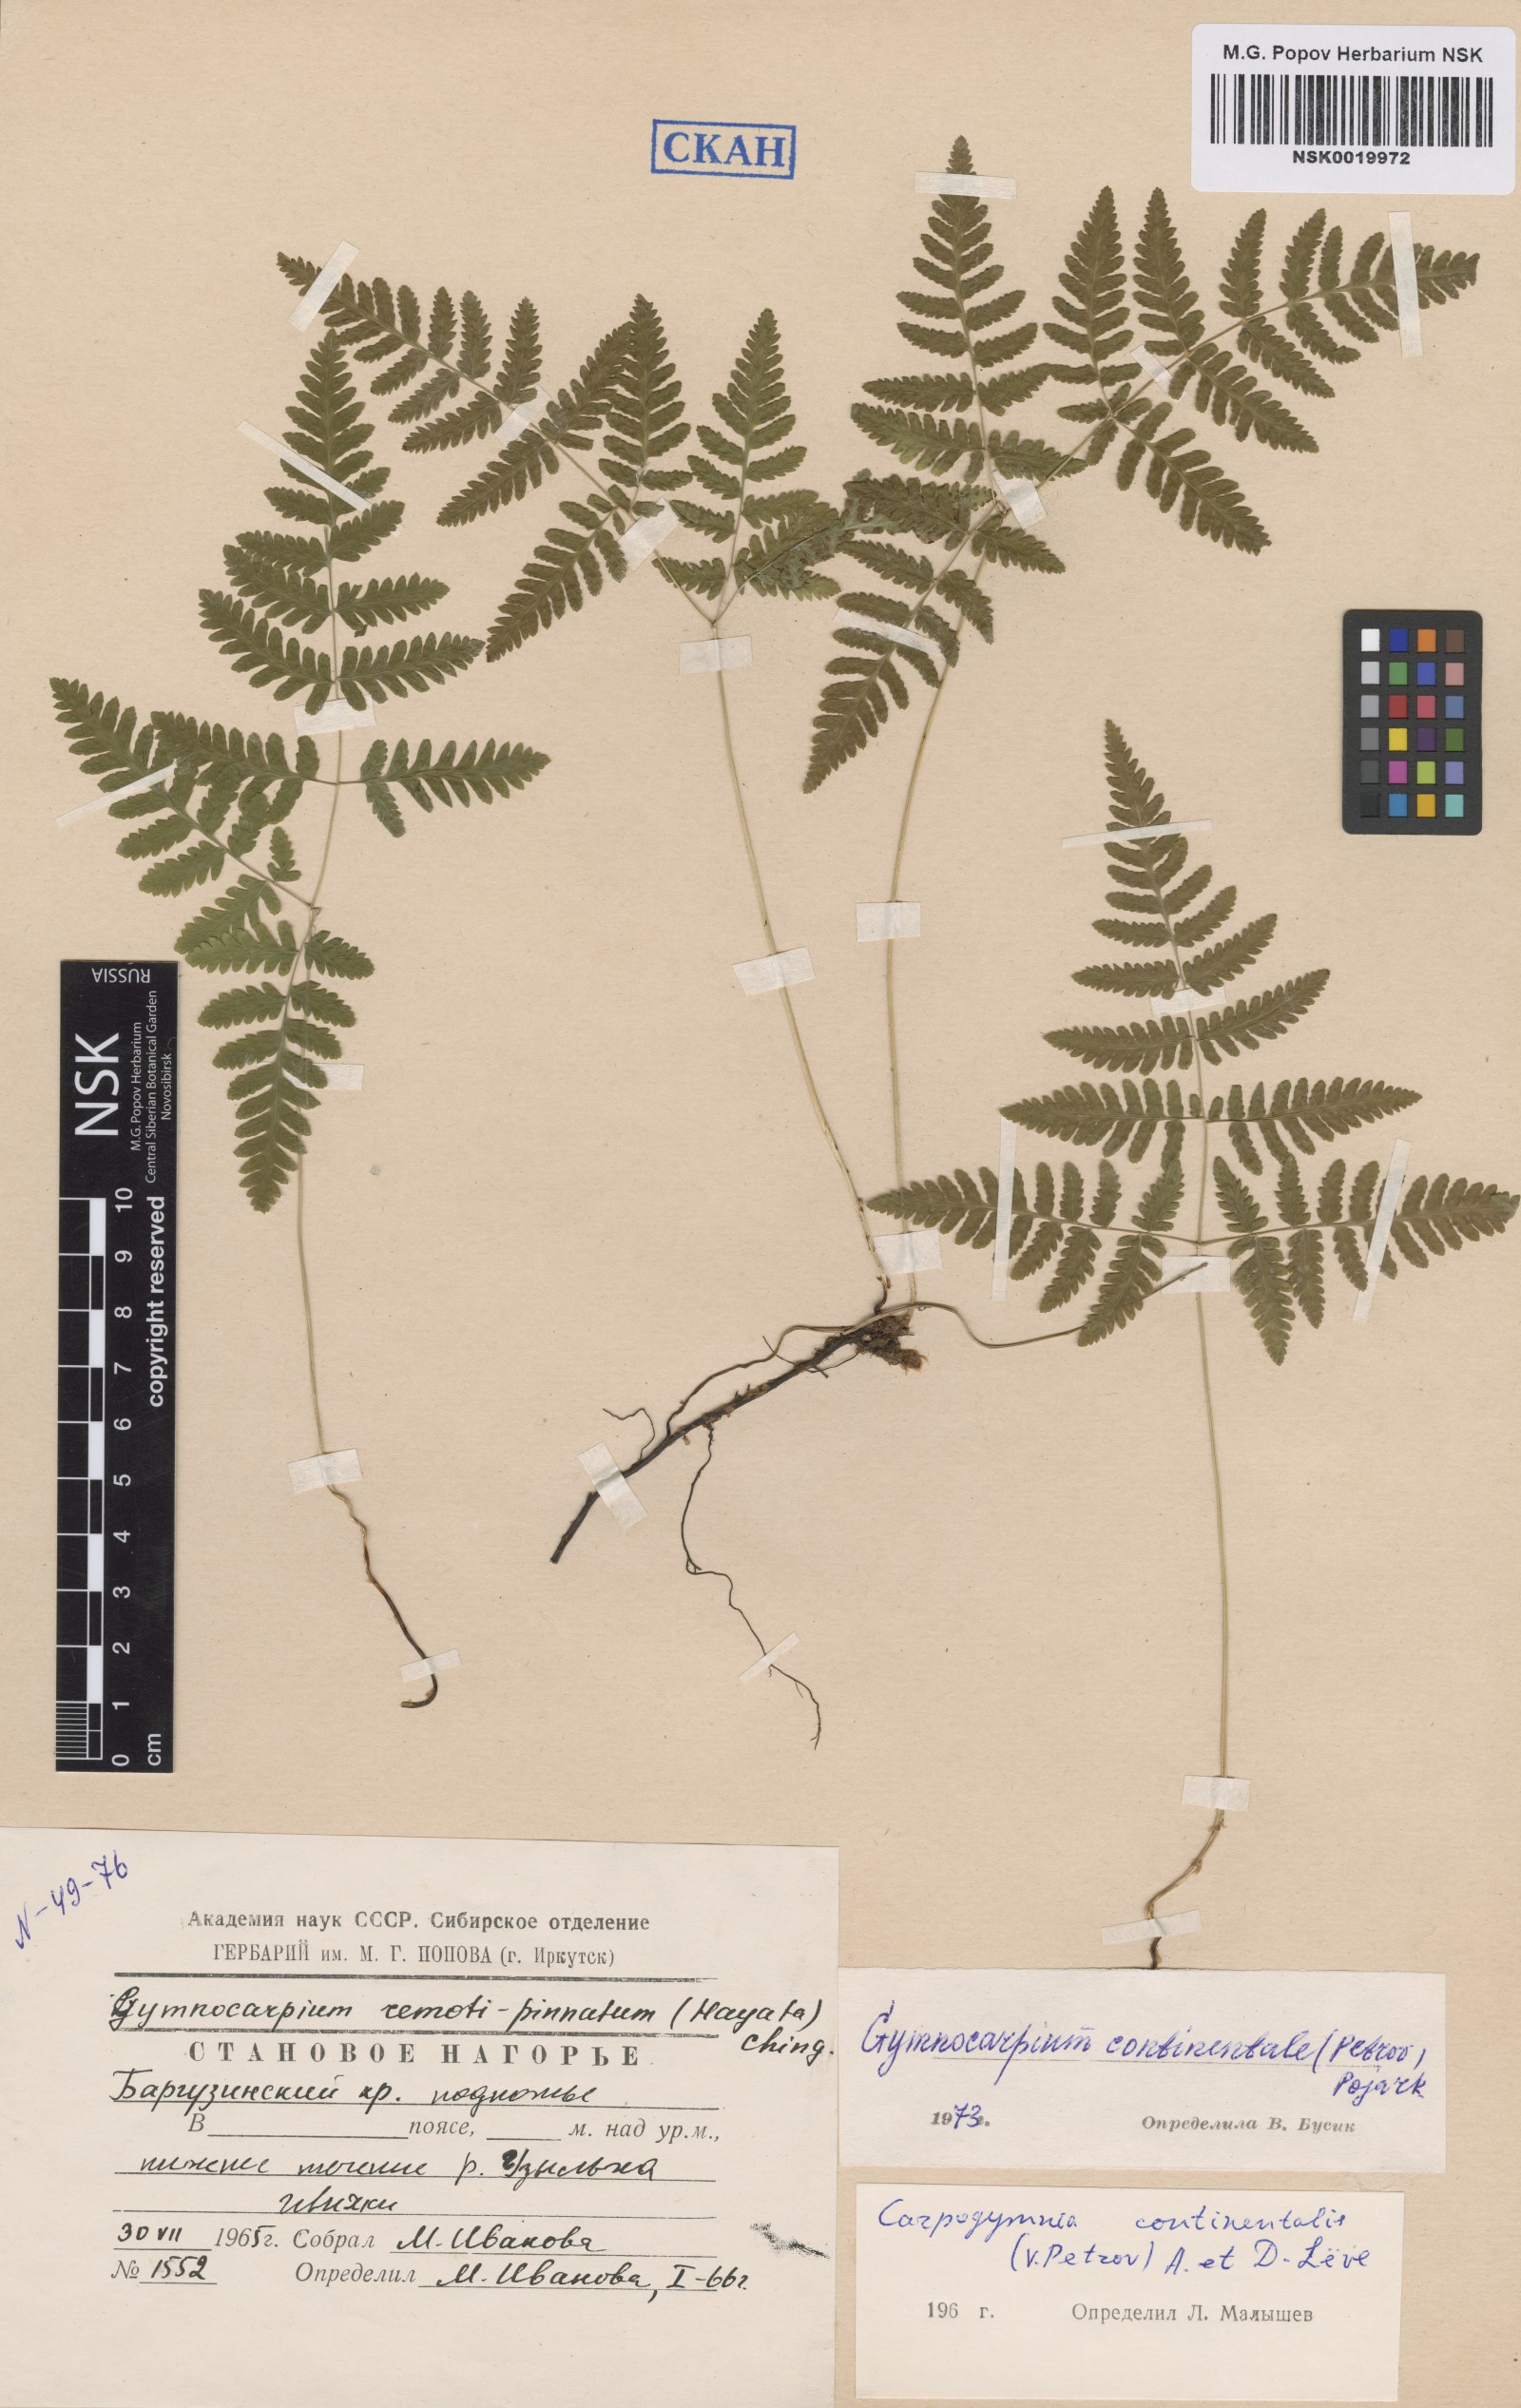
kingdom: Plantae
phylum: Tracheophyta
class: Polypodiopsida
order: Polypodiales
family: Cystopteridaceae
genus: Gymnocarpium
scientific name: Gymnocarpium continentale
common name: Asian oak fern
